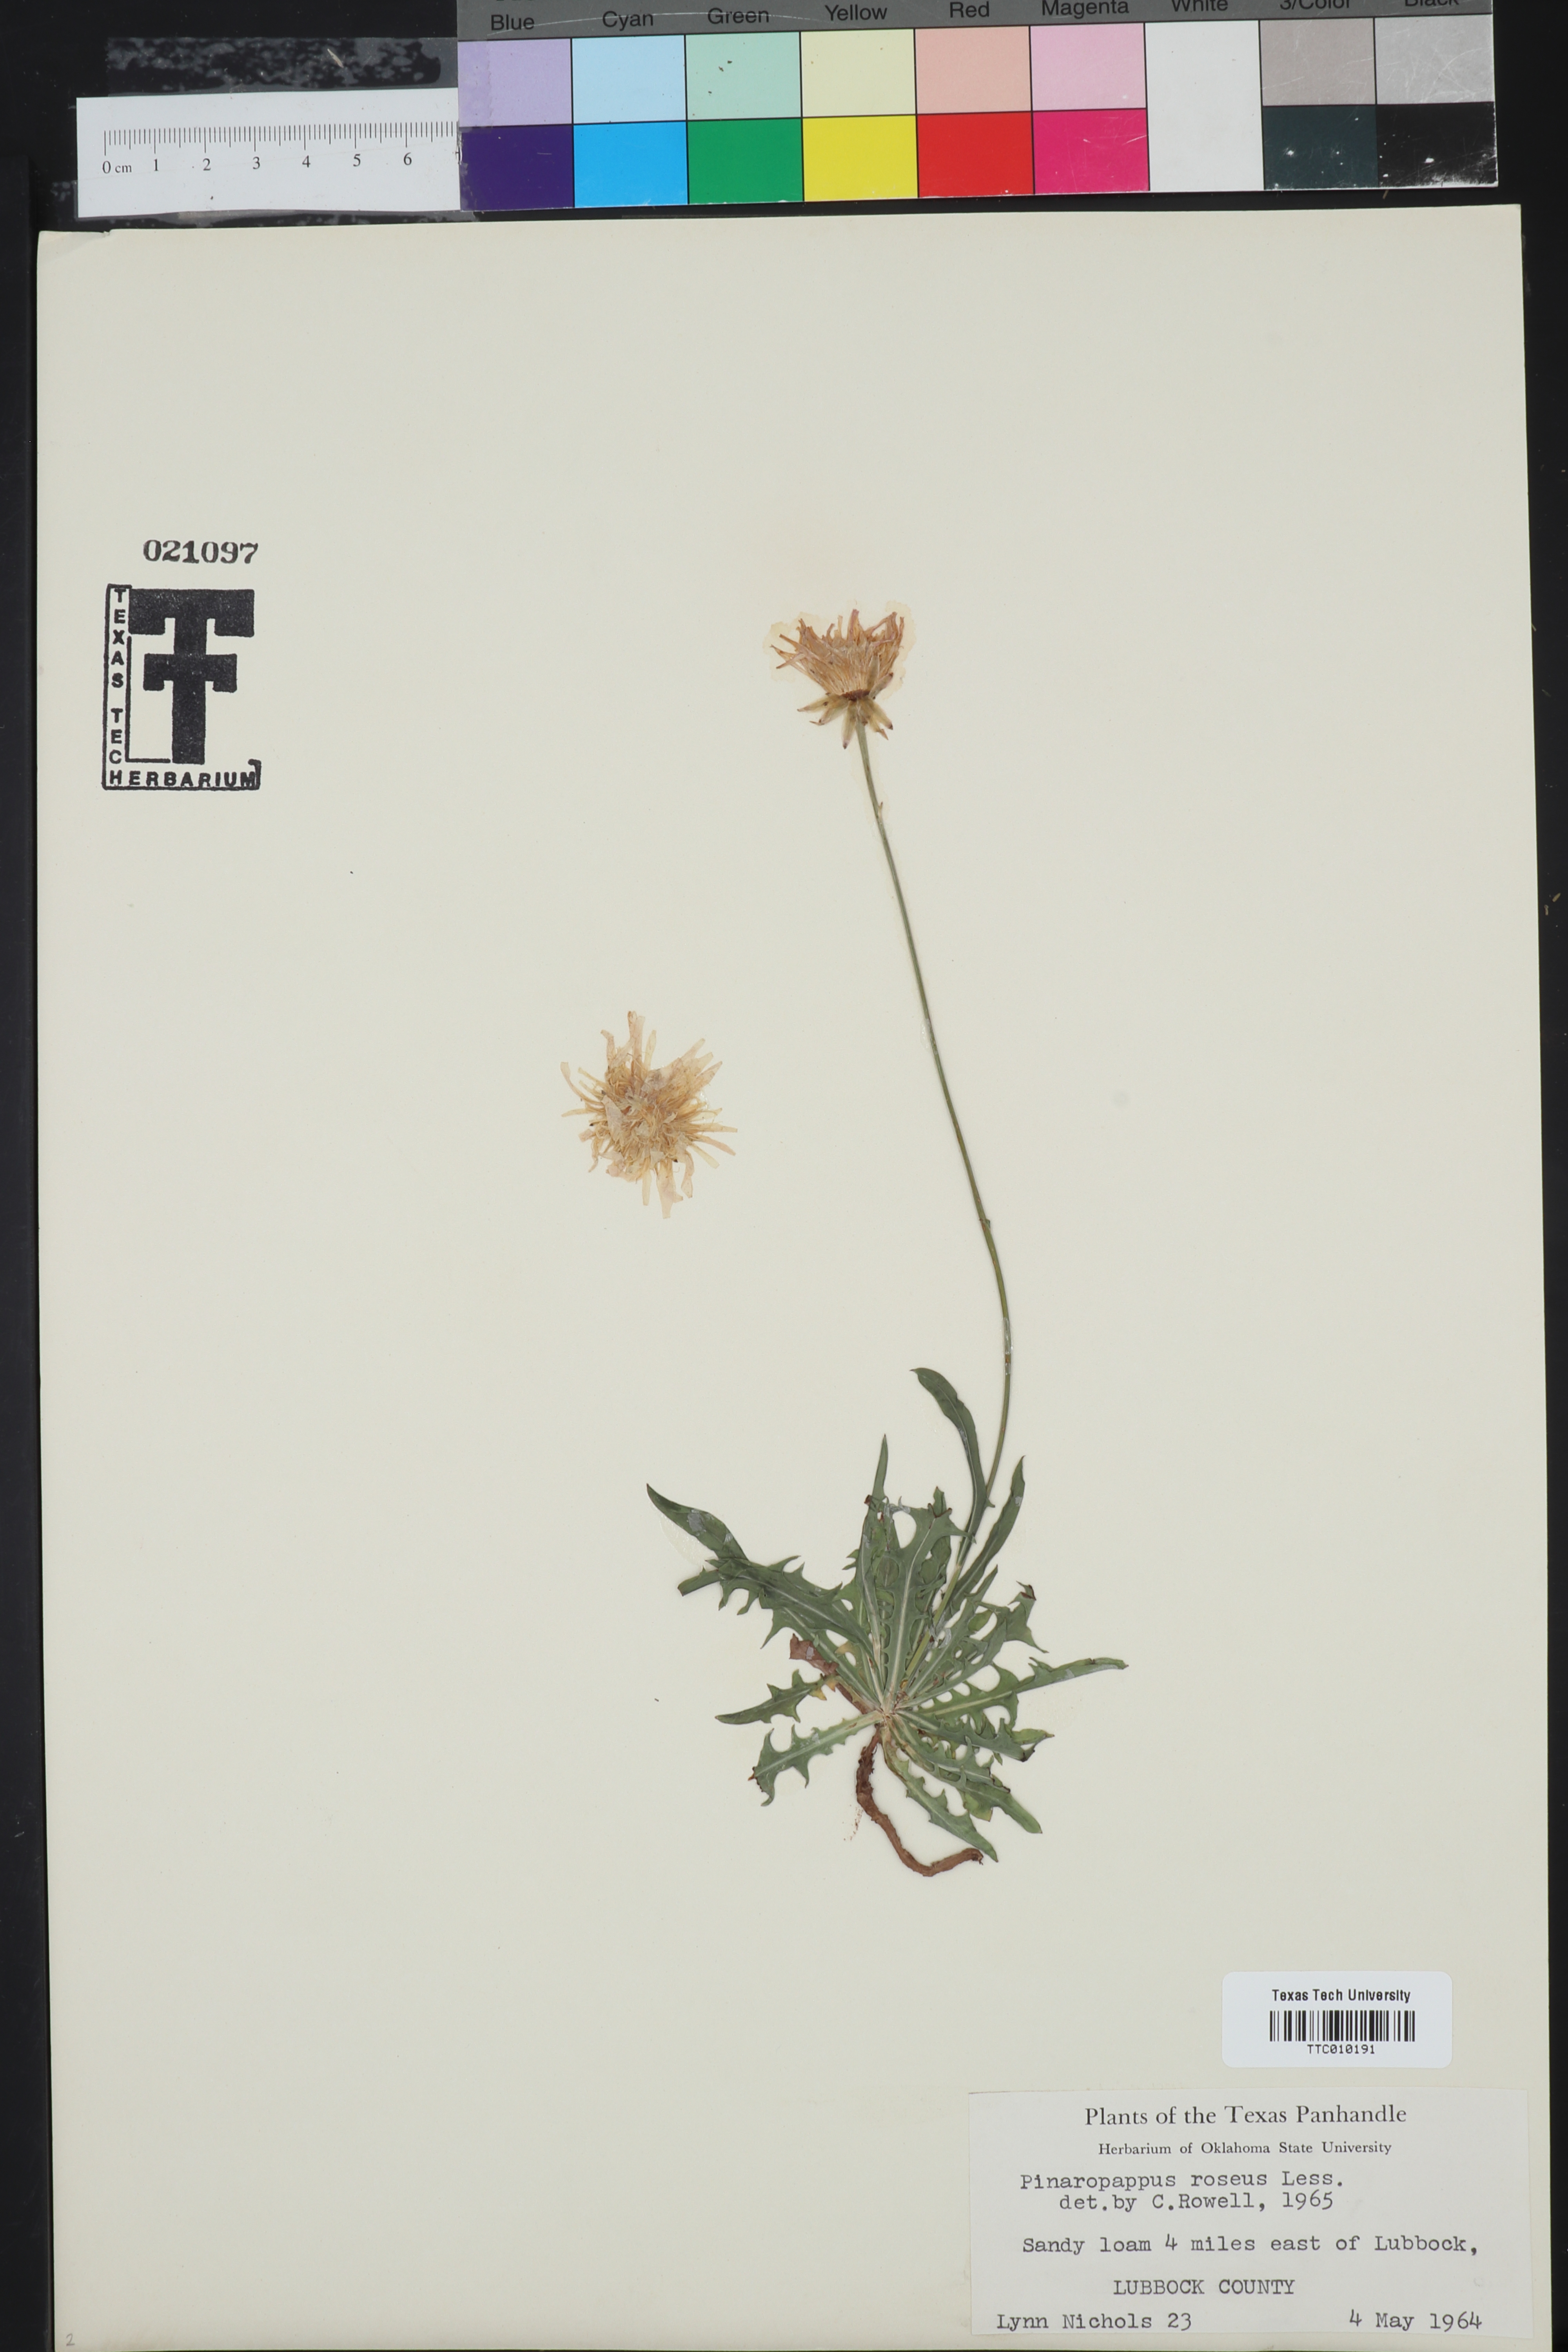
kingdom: Plantae
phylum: Tracheophyta
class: Magnoliopsida
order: Asterales
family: Asteraceae
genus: Pinaropappus
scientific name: Pinaropappus roseus
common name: Rock-lettuce
